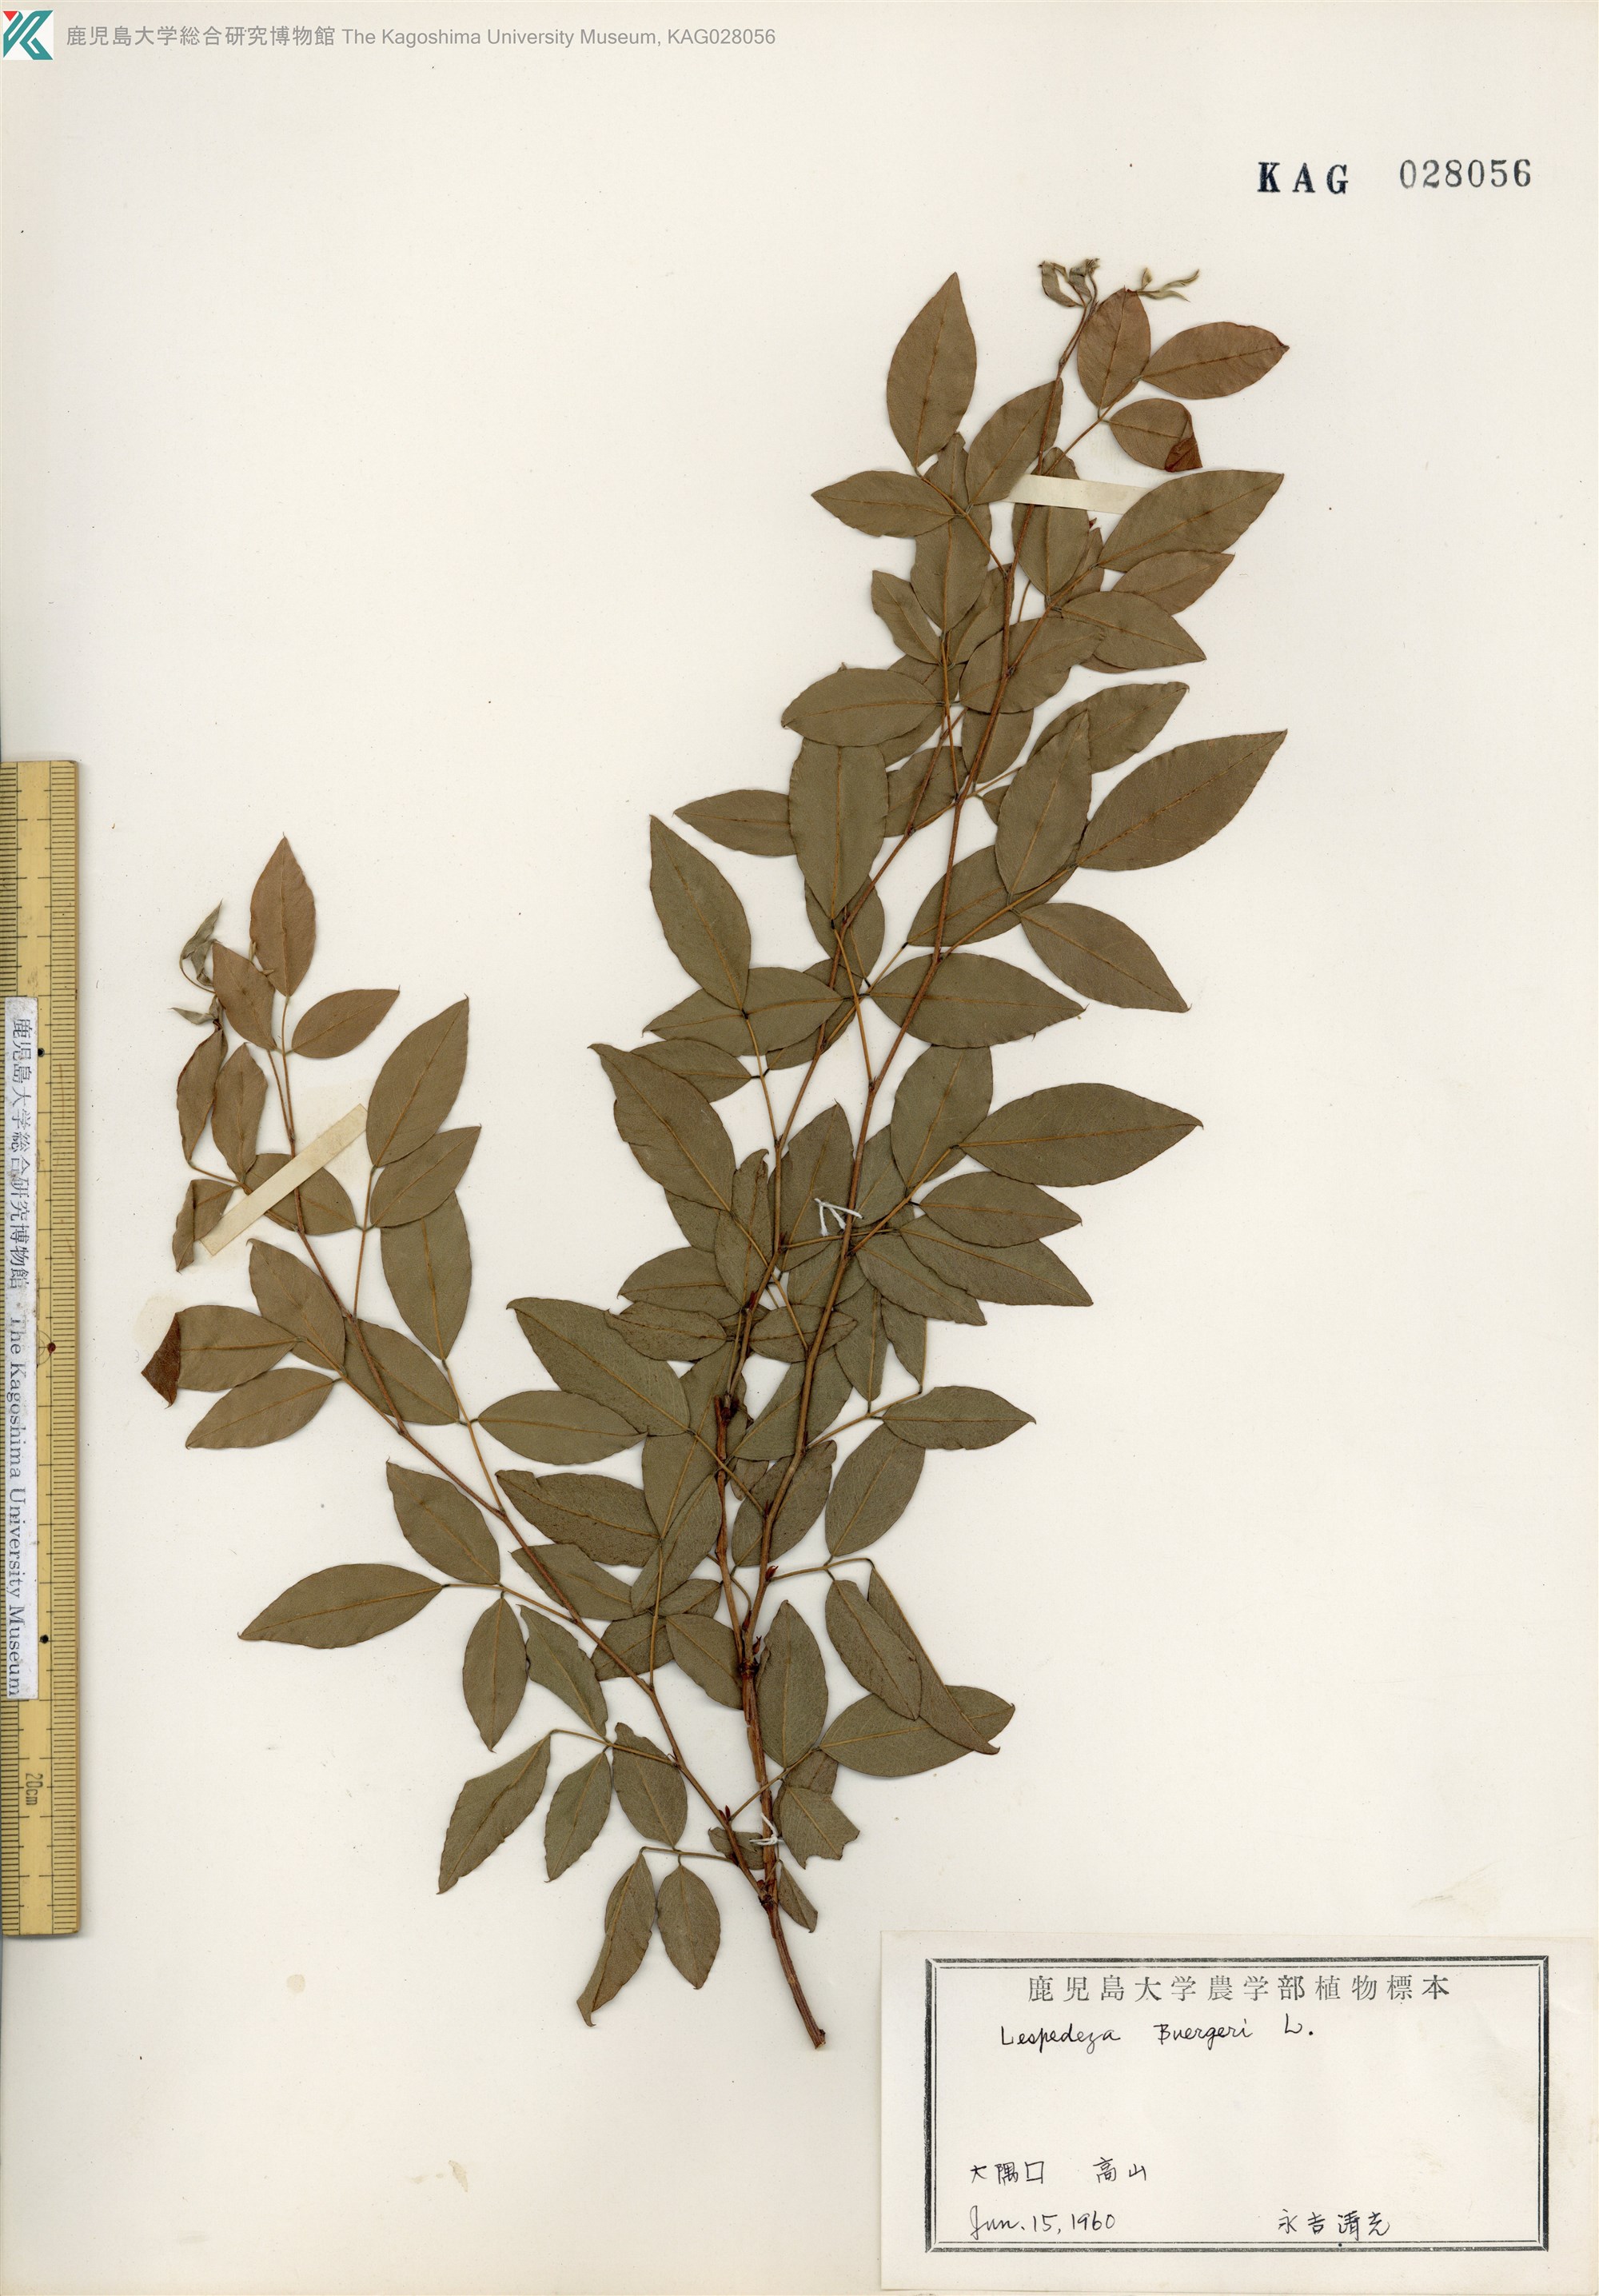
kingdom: Plantae
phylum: Tracheophyta
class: Magnoliopsida
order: Fabales
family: Fabaceae
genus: Lespedeza
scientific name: Lespedeza buergeri
